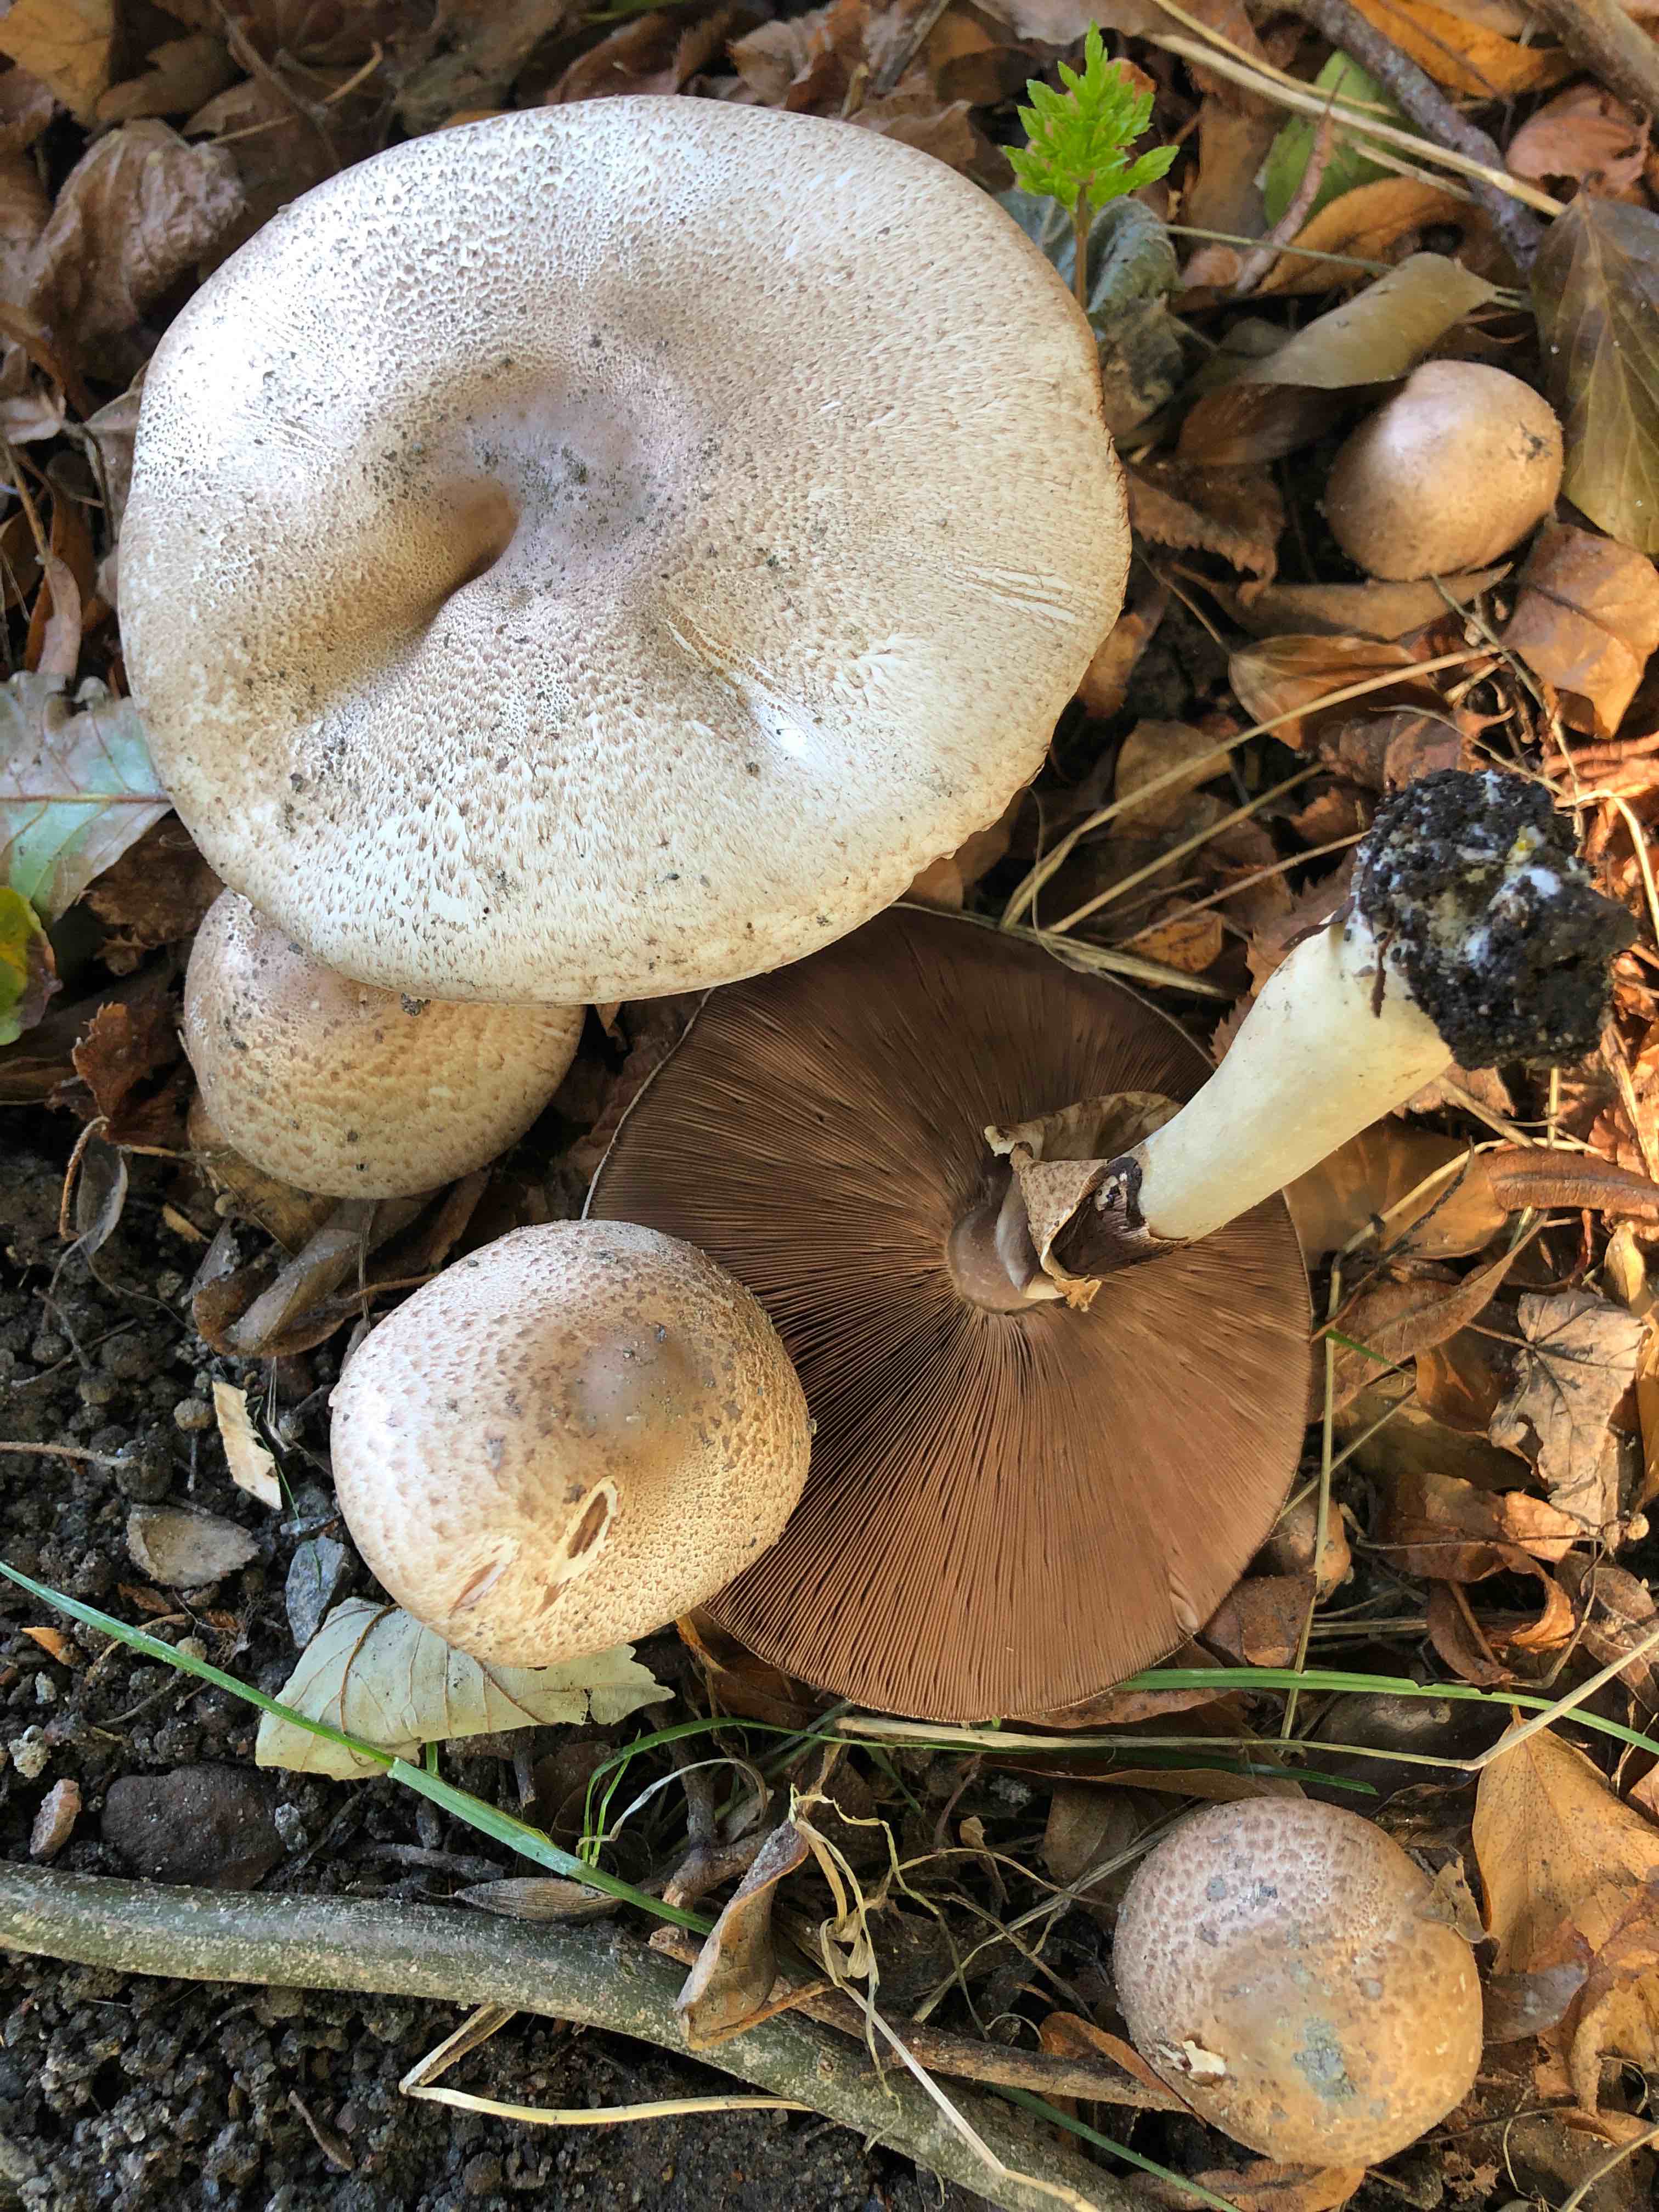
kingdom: Fungi
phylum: Basidiomycota
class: Agaricomycetes
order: Agaricales
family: Agaricaceae
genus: Agaricus
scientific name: Agaricus
